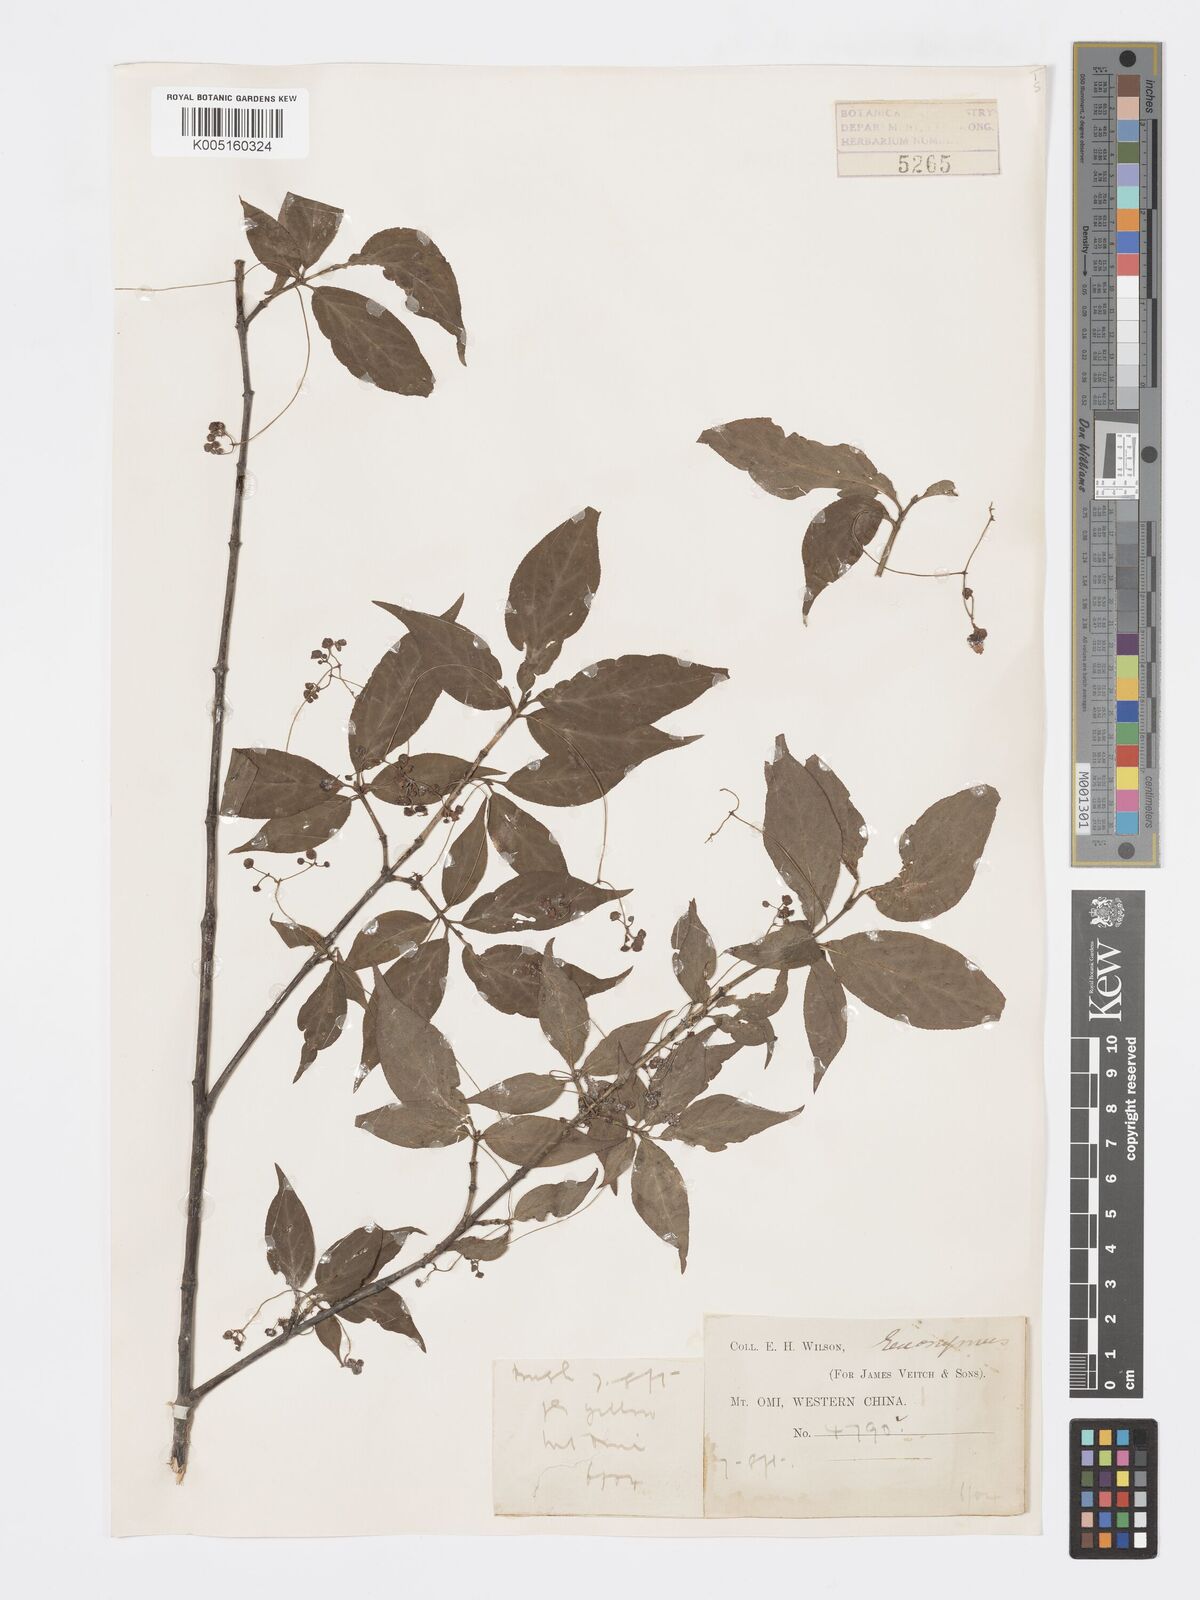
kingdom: Plantae
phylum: Tracheophyta
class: Magnoliopsida
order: Celastrales
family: Celastraceae
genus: Euonymus
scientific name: Euonymus
